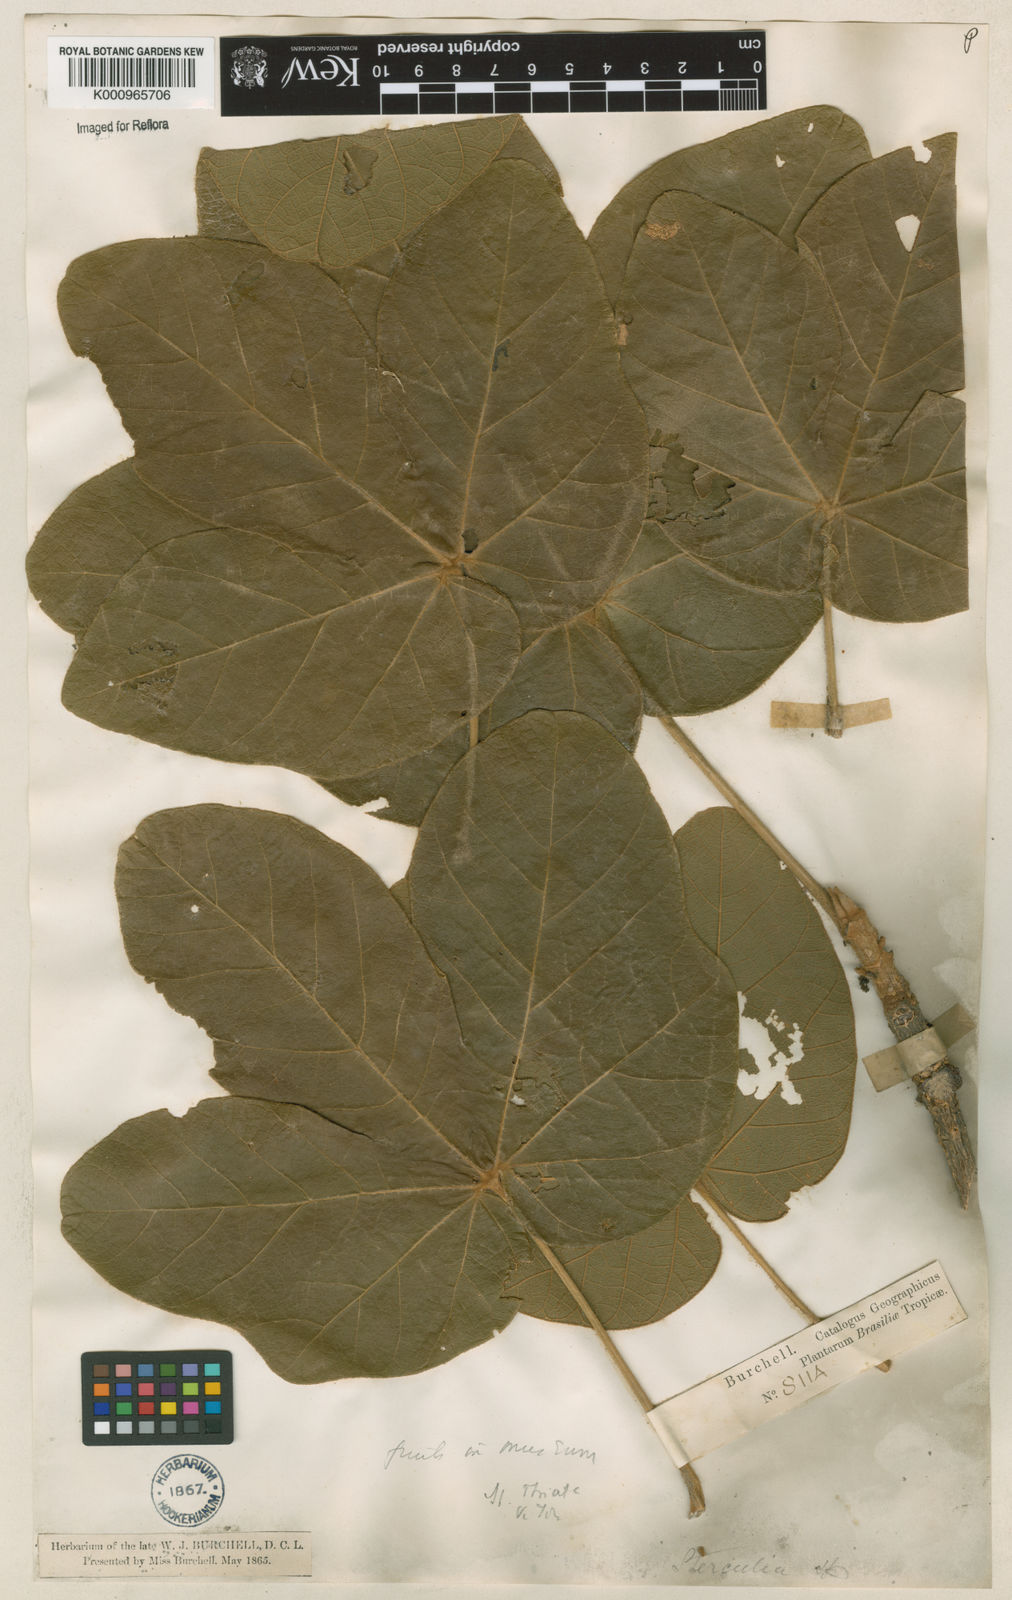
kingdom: Plantae
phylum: Tracheophyta
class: Magnoliopsida
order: Malvales
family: Malvaceae
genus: Sterculia
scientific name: Sterculia striata
